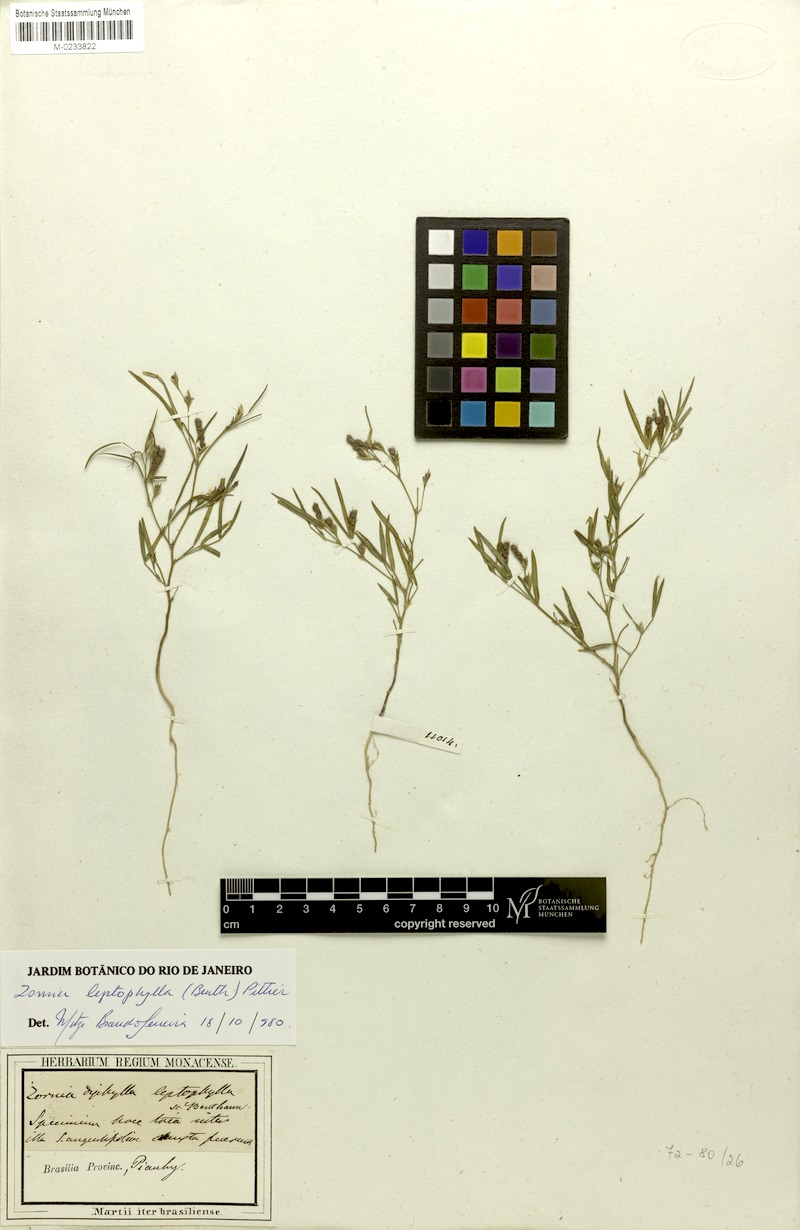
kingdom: Plantae
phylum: Tracheophyta
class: Magnoliopsida
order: Fabales
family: Fabaceae
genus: Zornia
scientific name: Zornia leptophylla
